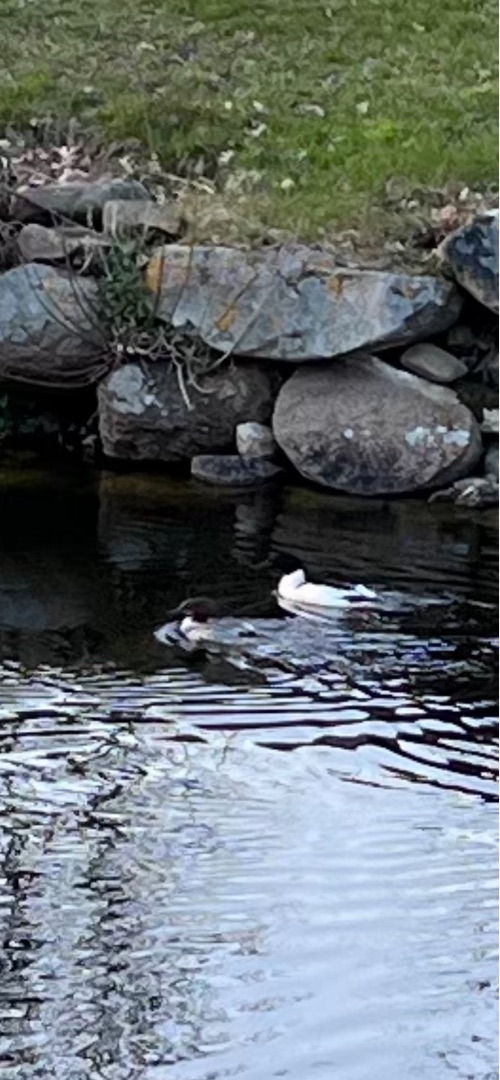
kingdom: Animalia
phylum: Chordata
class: Aves
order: Anseriformes
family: Anatidae
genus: Mergus
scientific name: Mergus merganser
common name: Stor skallesluger
